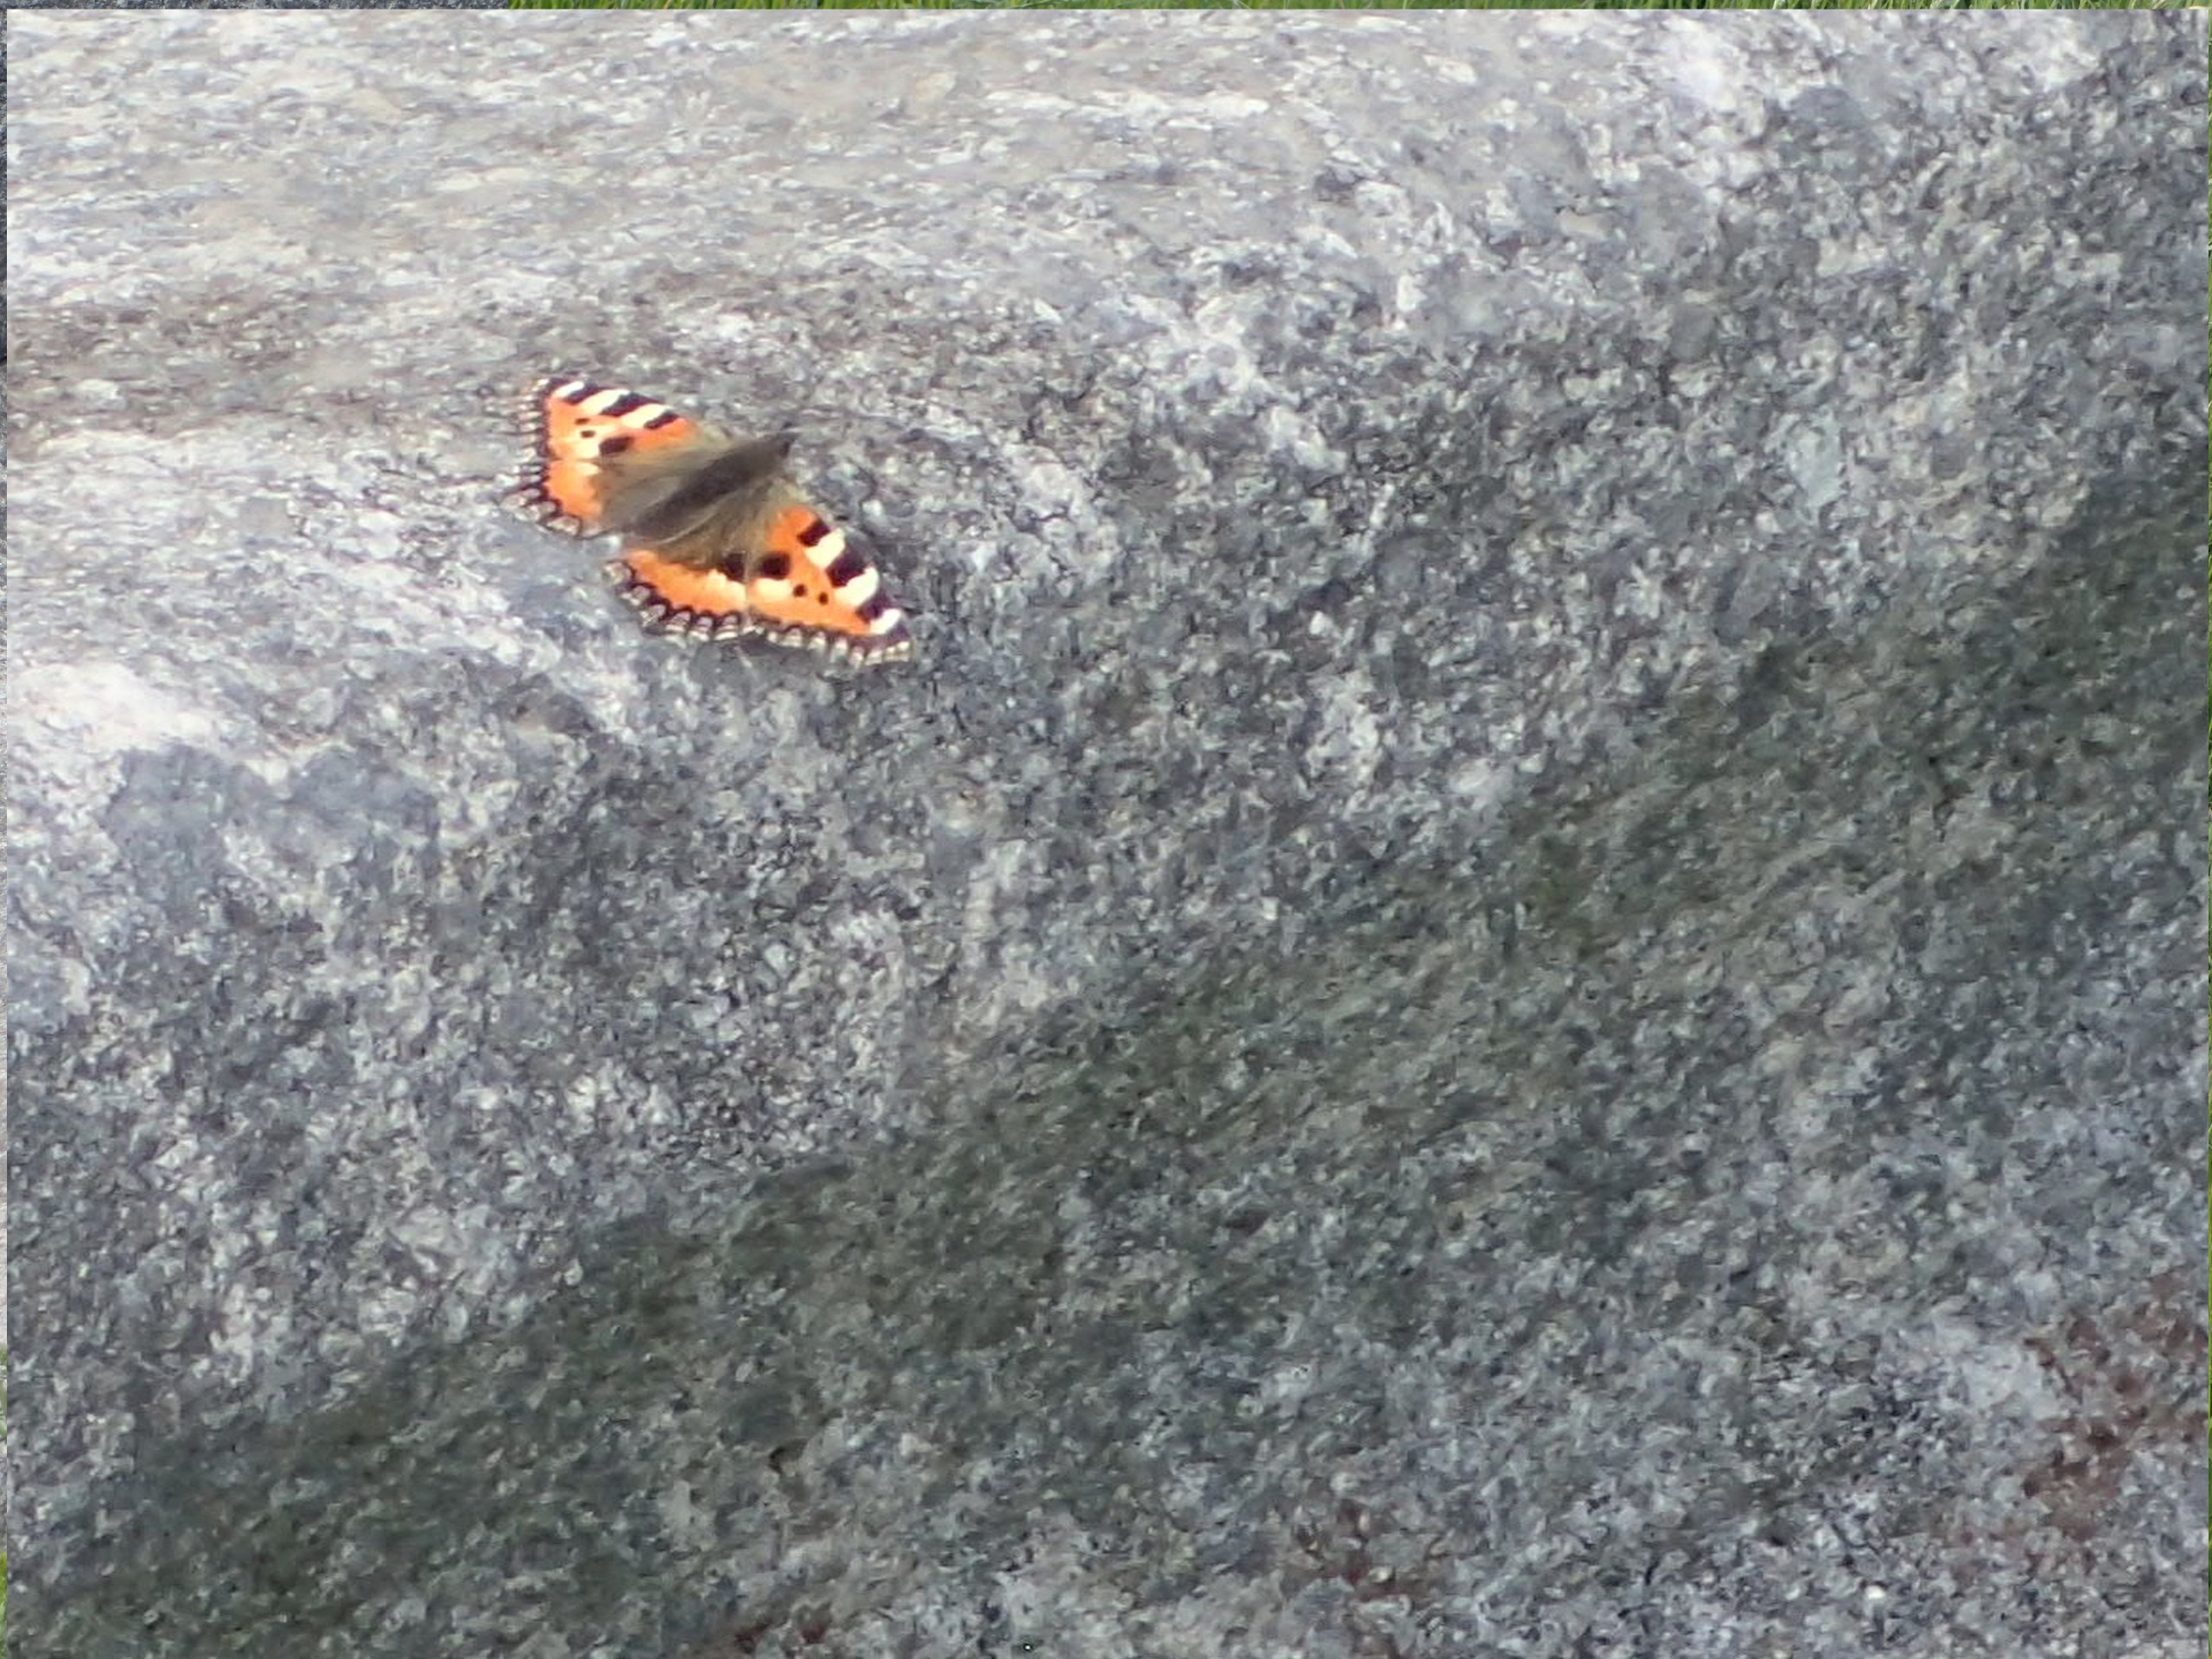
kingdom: Animalia
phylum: Arthropoda
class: Insecta
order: Lepidoptera
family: Nymphalidae
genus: Aglais
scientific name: Aglais urticae
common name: Nældens takvinge
